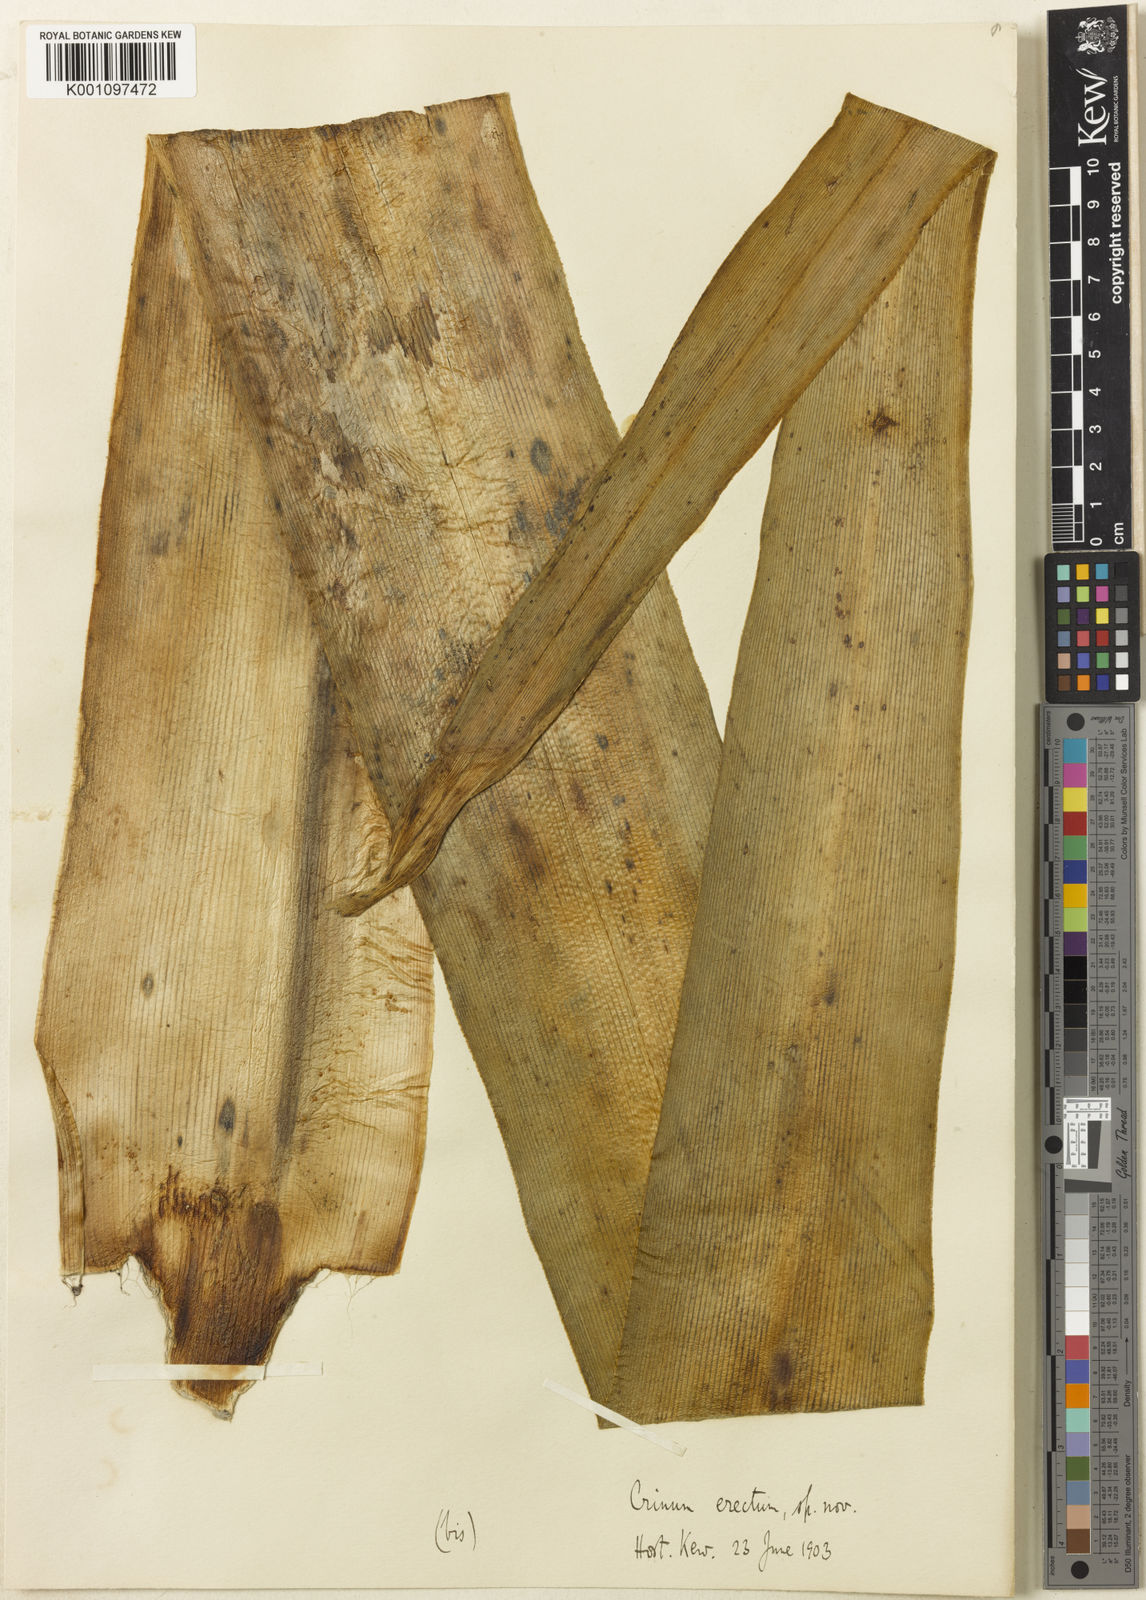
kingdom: Plantae
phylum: Tracheophyta
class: Liliopsida
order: Asparagales
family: Amaryllidaceae
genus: Crinum
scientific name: Crinum
